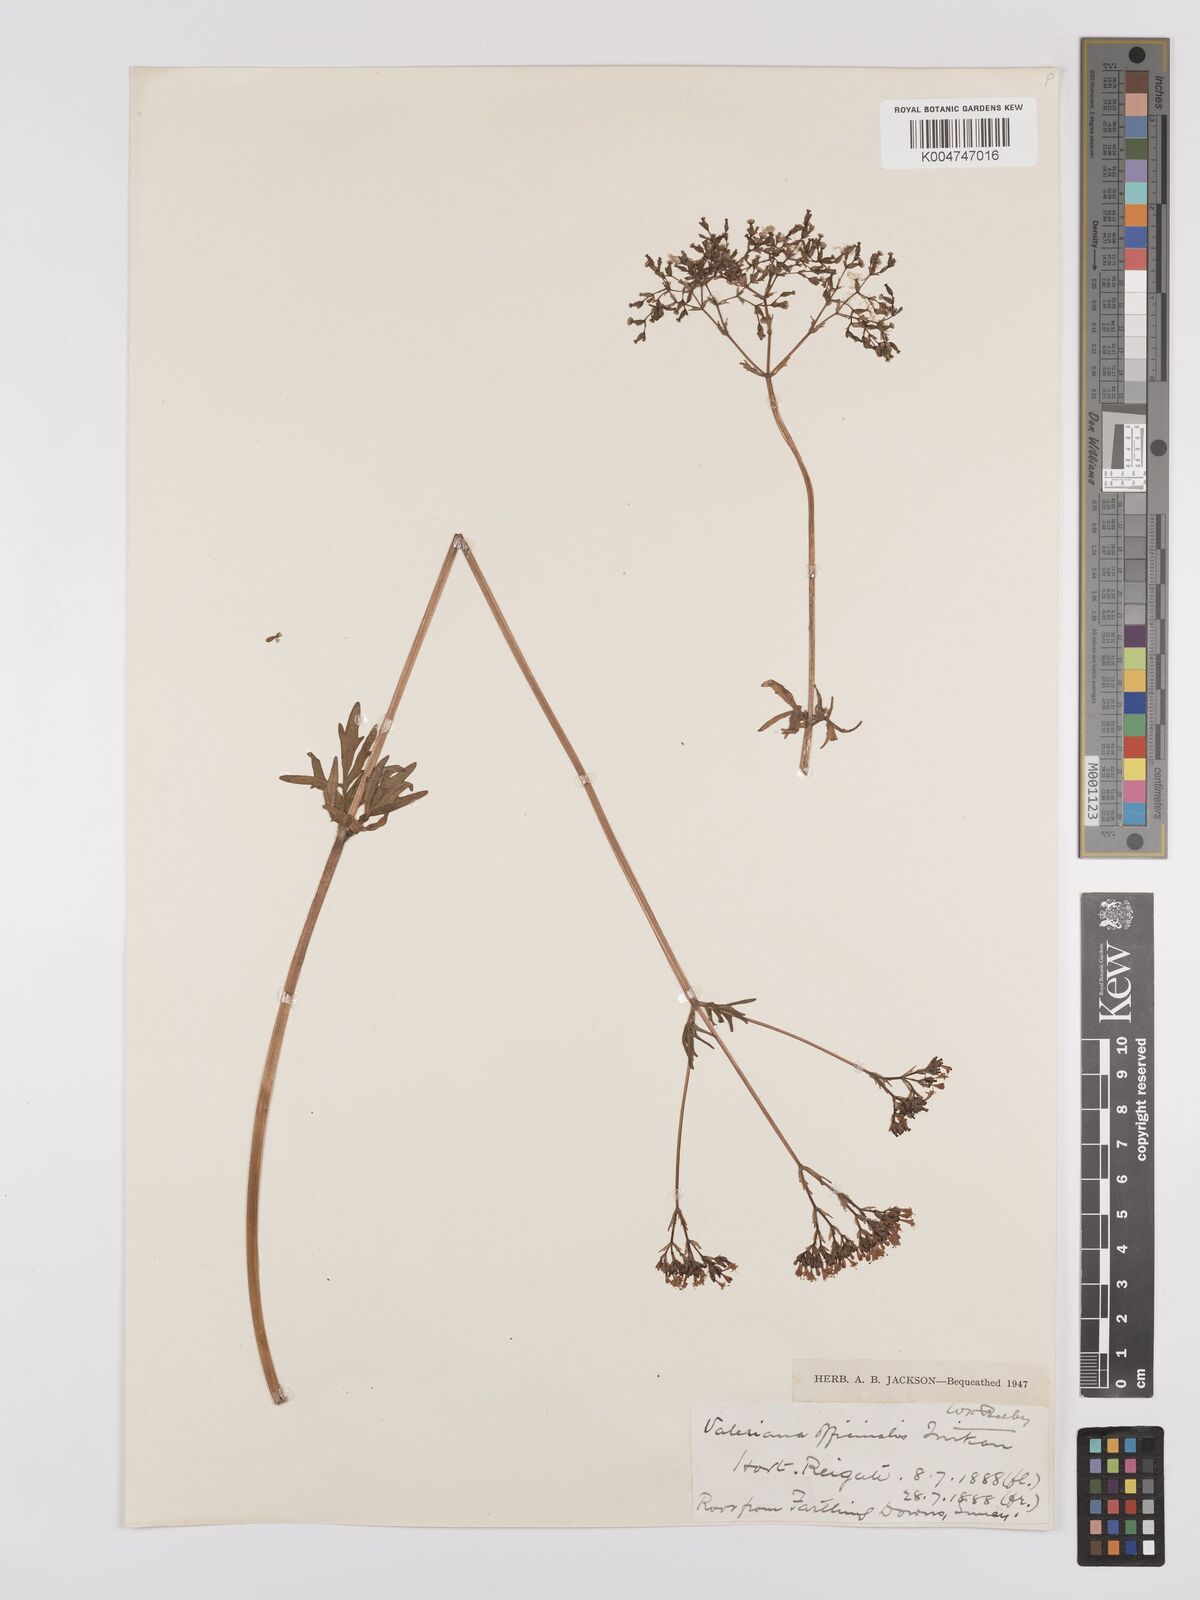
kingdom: Plantae
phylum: Tracheophyta
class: Magnoliopsida
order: Dipsacales
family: Caprifoliaceae
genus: Valeriana
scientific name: Valeriana pyrenaica
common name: Pyrenean valerian
